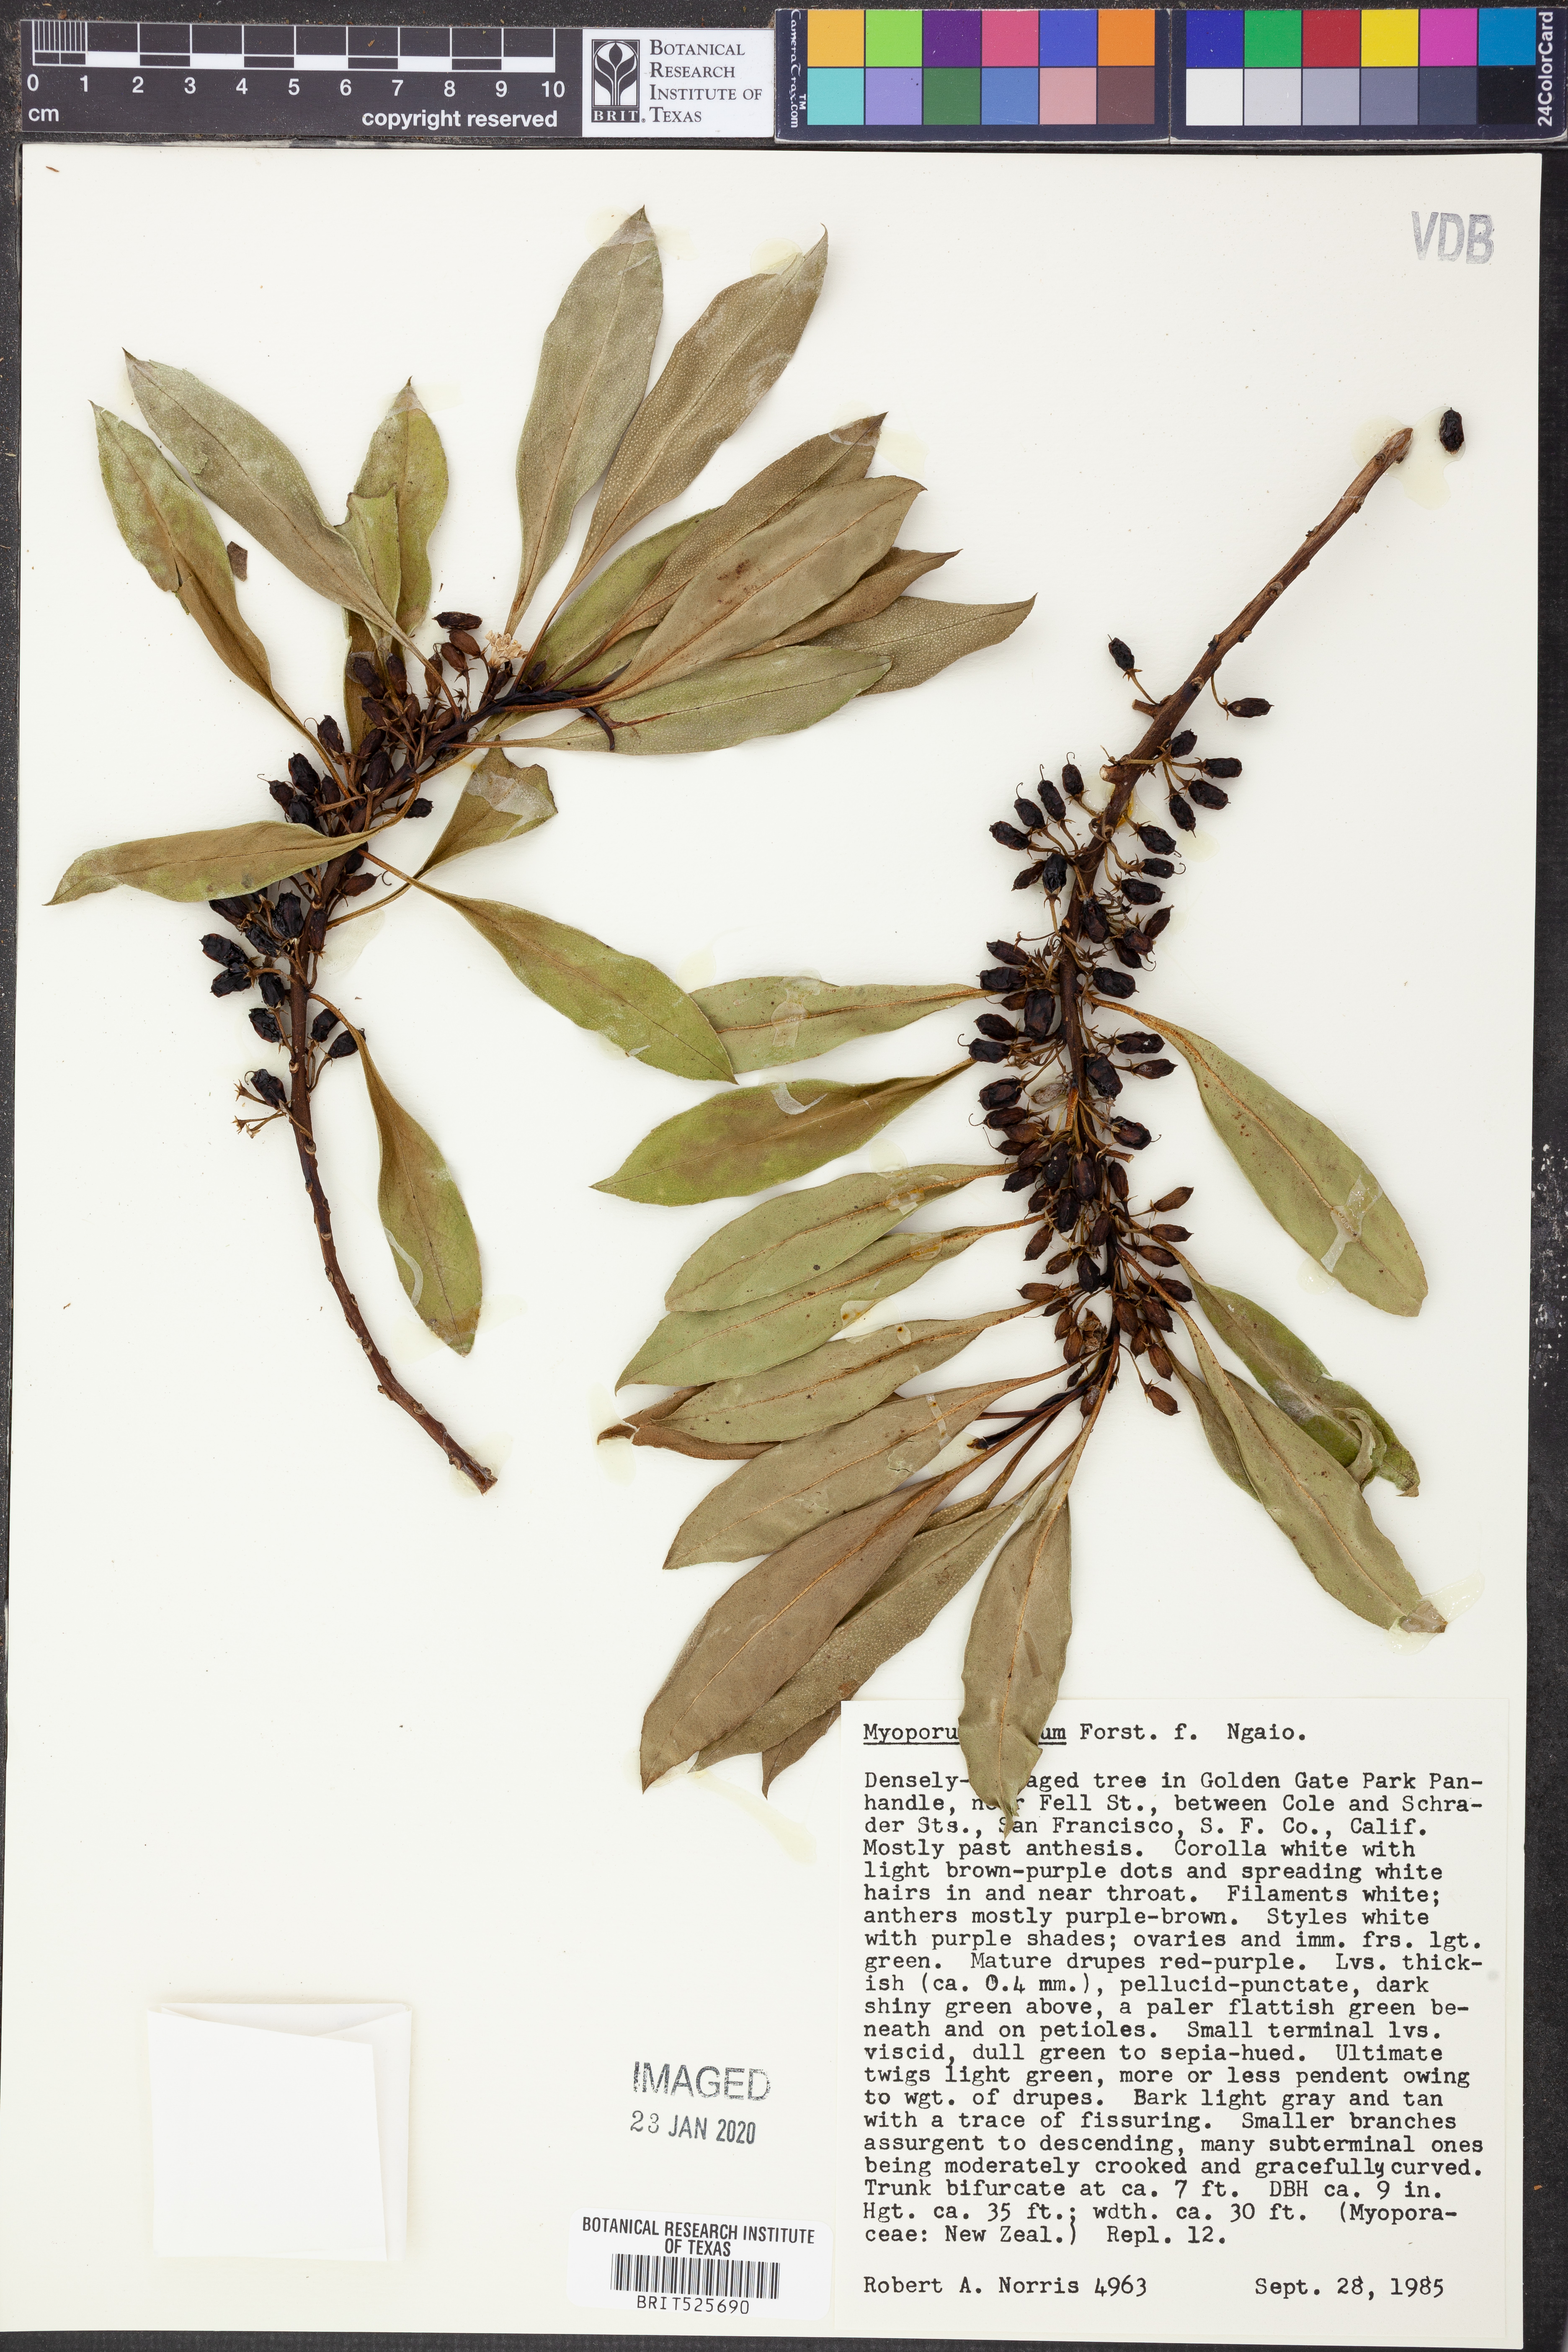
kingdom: Plantae
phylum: Tracheophyta
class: Magnoliopsida
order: Lamiales
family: Scrophulariaceae
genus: Myoporum
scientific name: Myoporum laetum
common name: Ngaio tree
